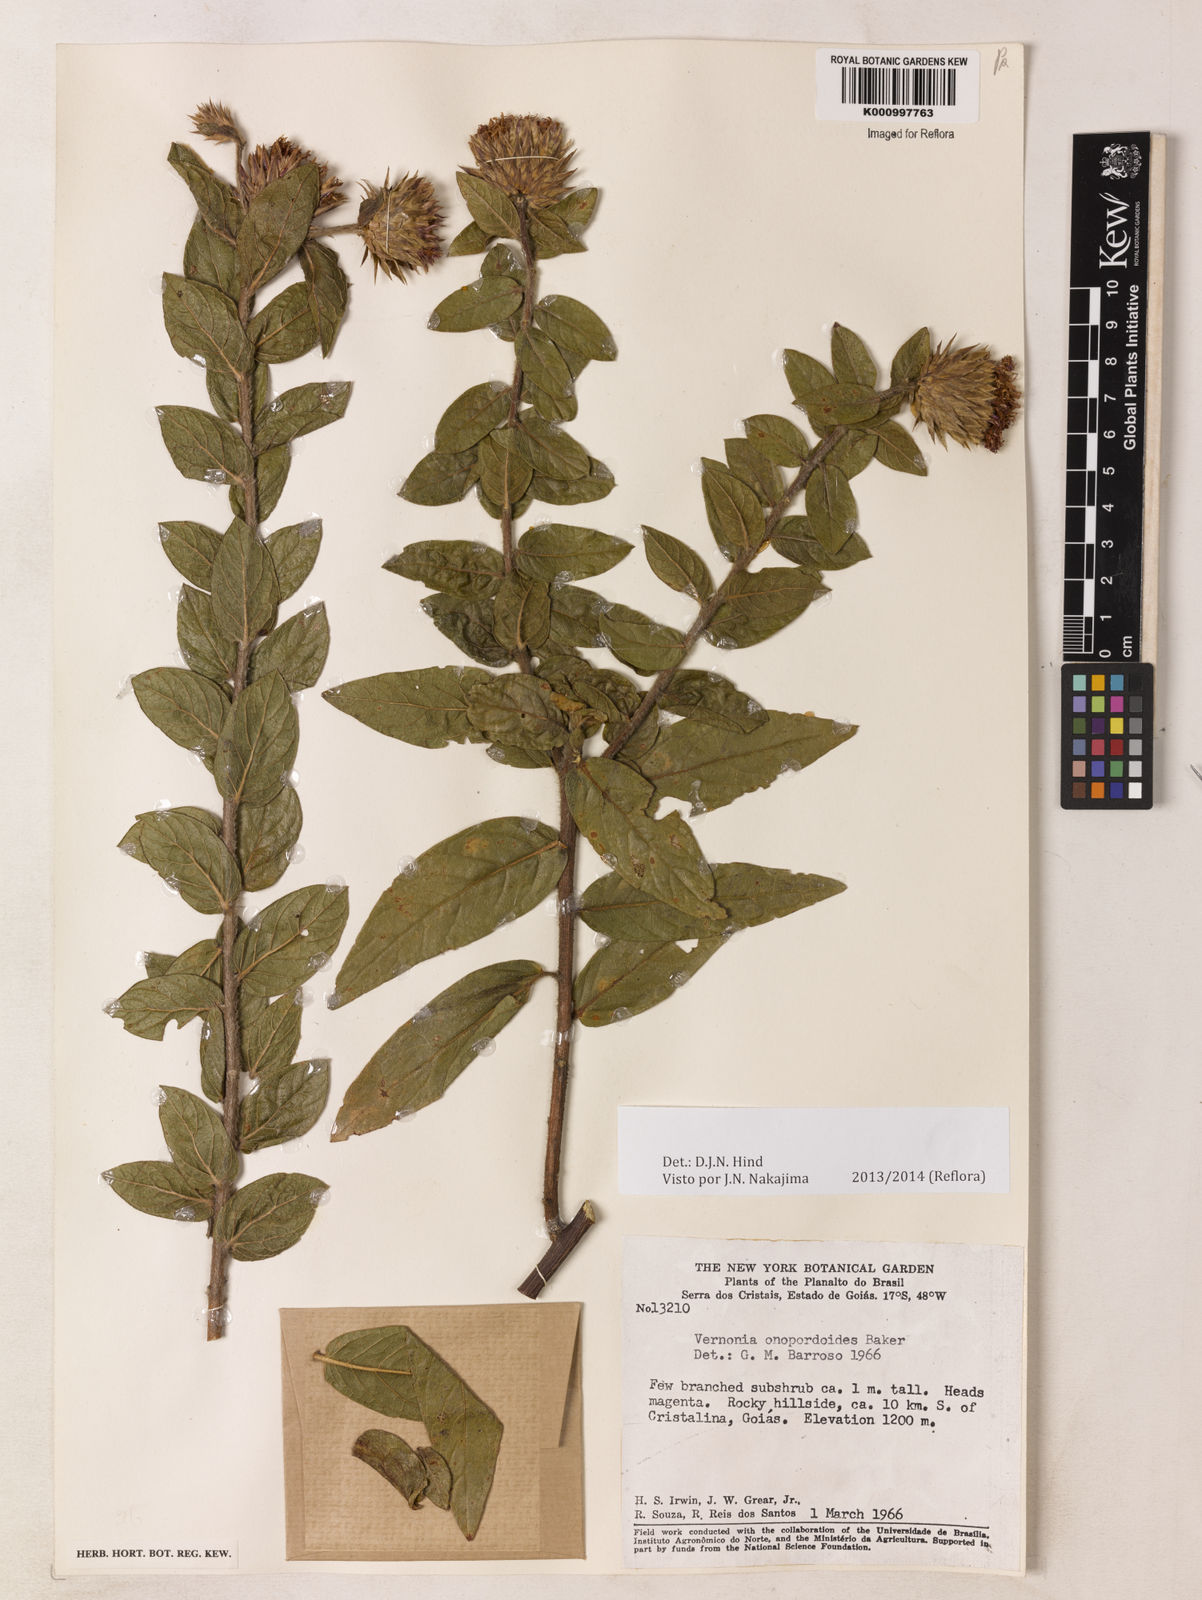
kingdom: Plantae
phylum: Tracheophyta
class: Magnoliopsida
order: Asterales
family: Asteraceae
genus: Lessingianthus
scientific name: Lessingianthus onopordioides
